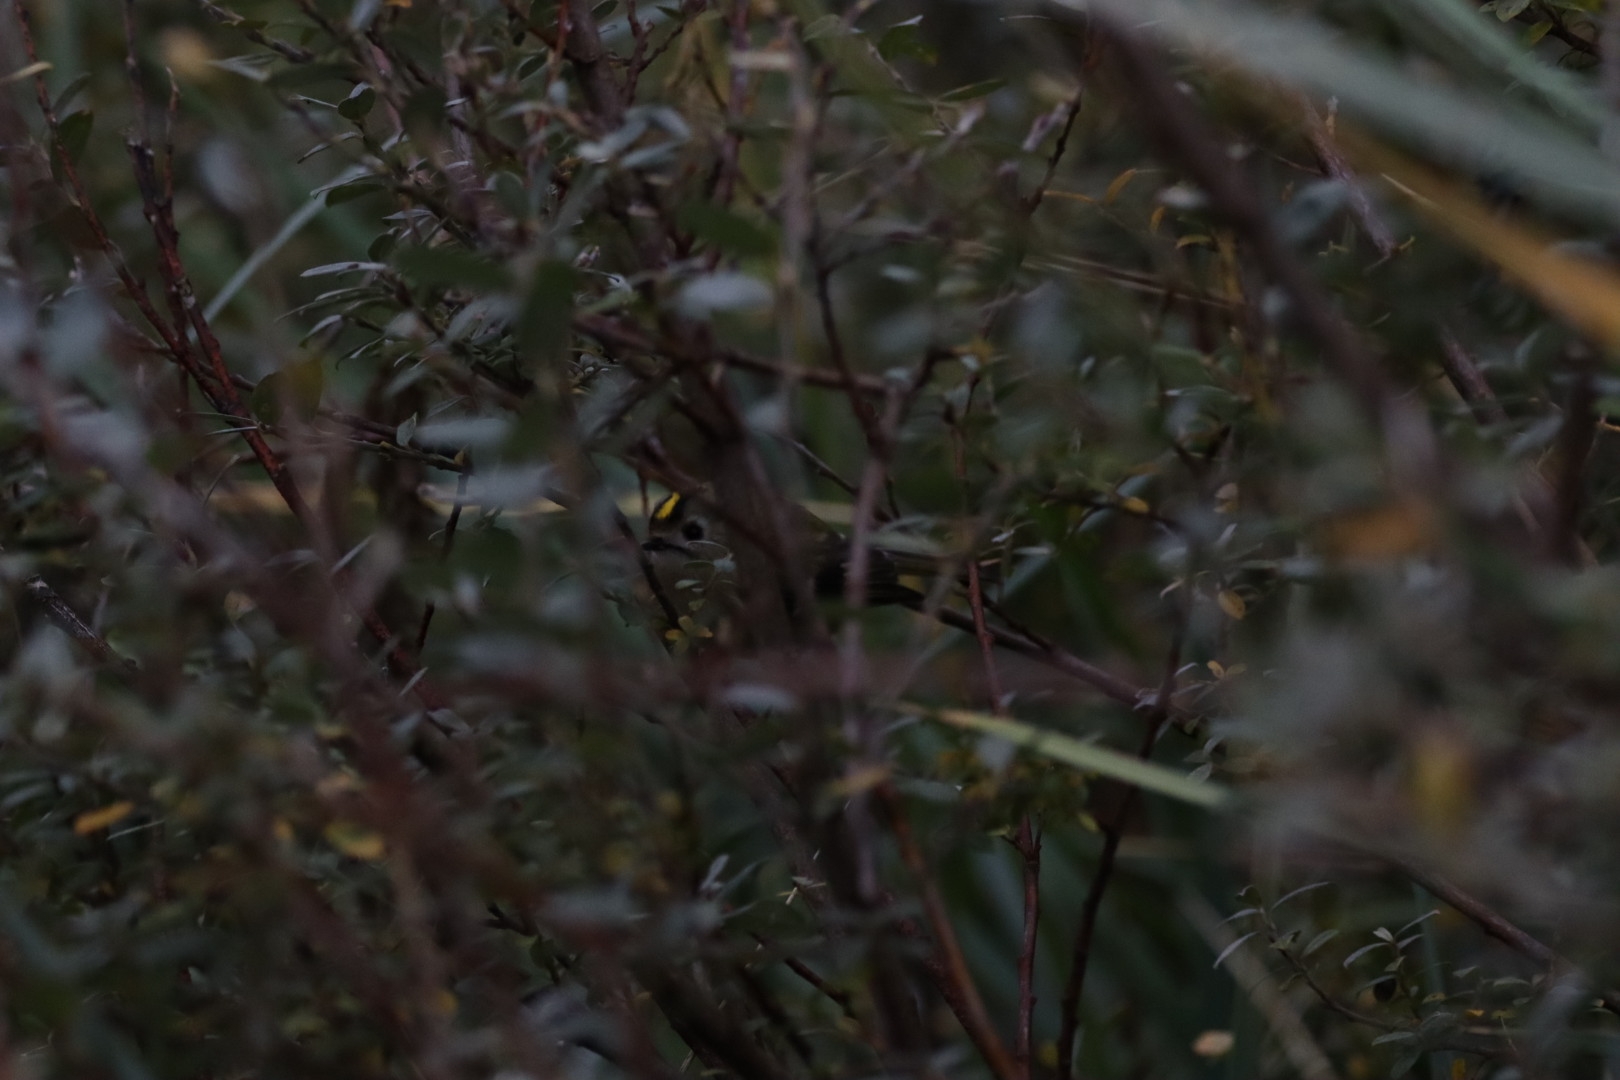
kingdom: Animalia
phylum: Chordata
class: Aves
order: Passeriformes
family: Regulidae
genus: Regulus
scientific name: Regulus regulus
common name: Fuglekonge
